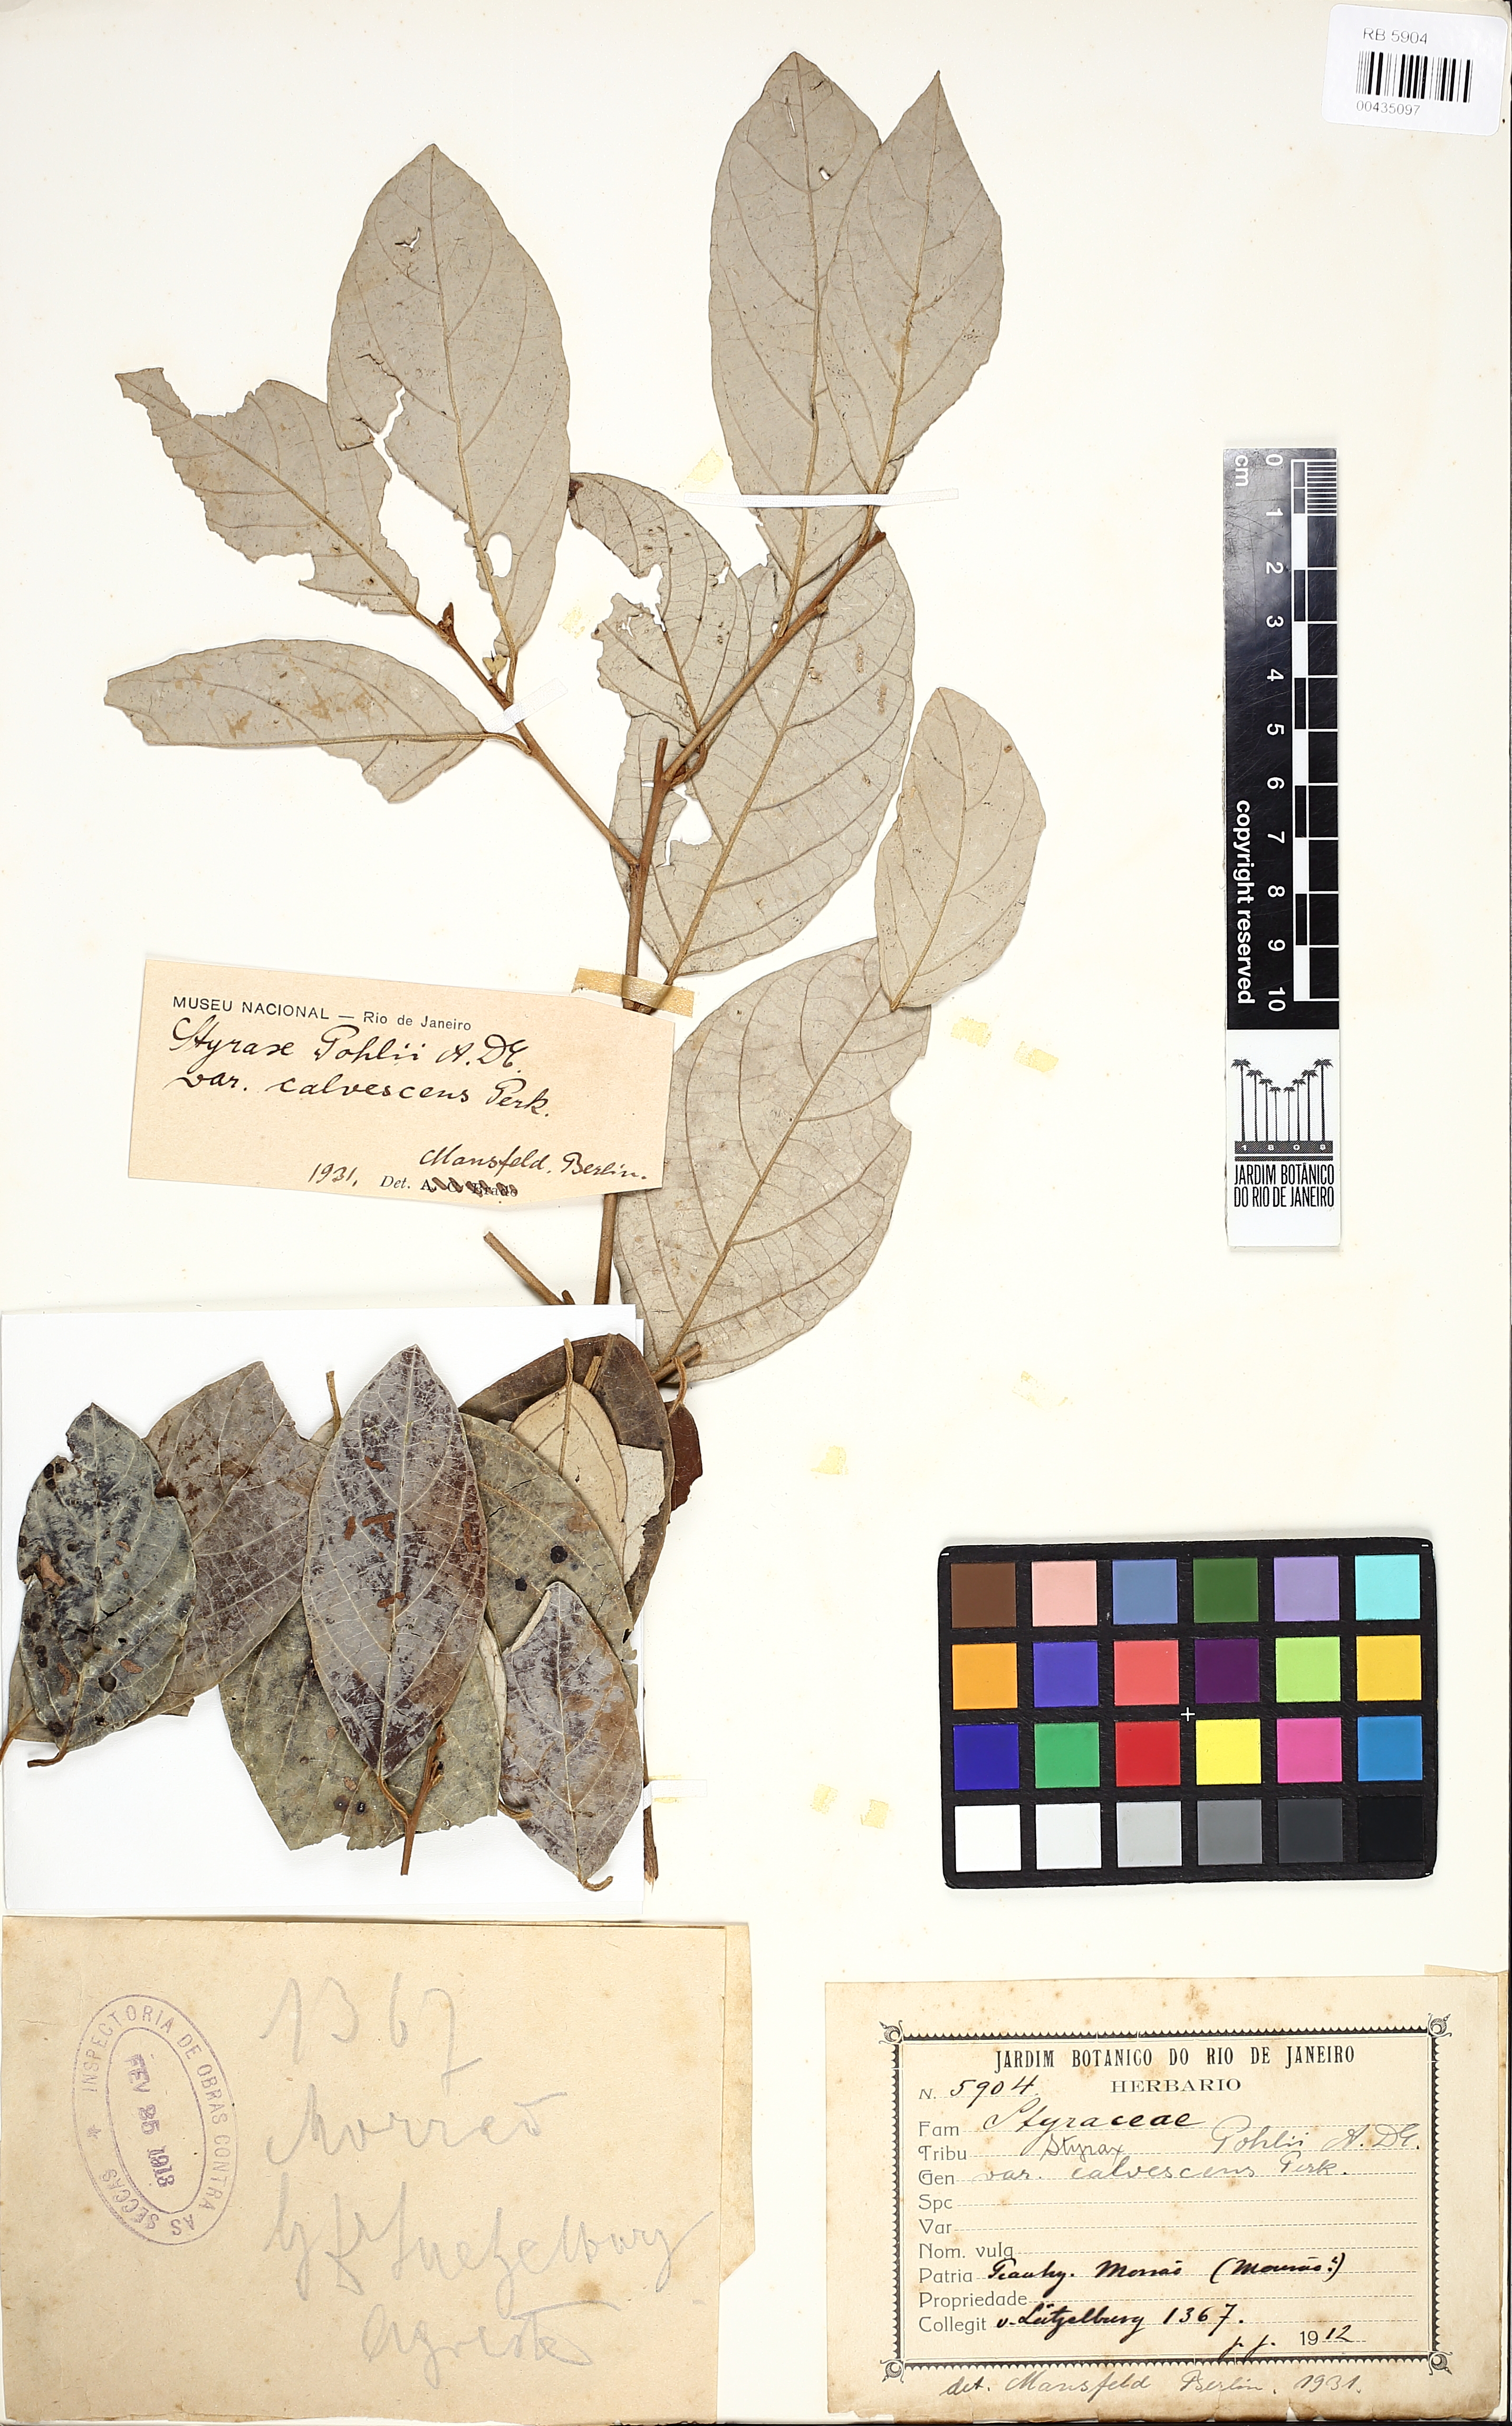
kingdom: Plantae
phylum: Tracheophyta
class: Magnoliopsida
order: Ericales
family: Styracaceae
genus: Styrax
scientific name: Styrax pohlii
